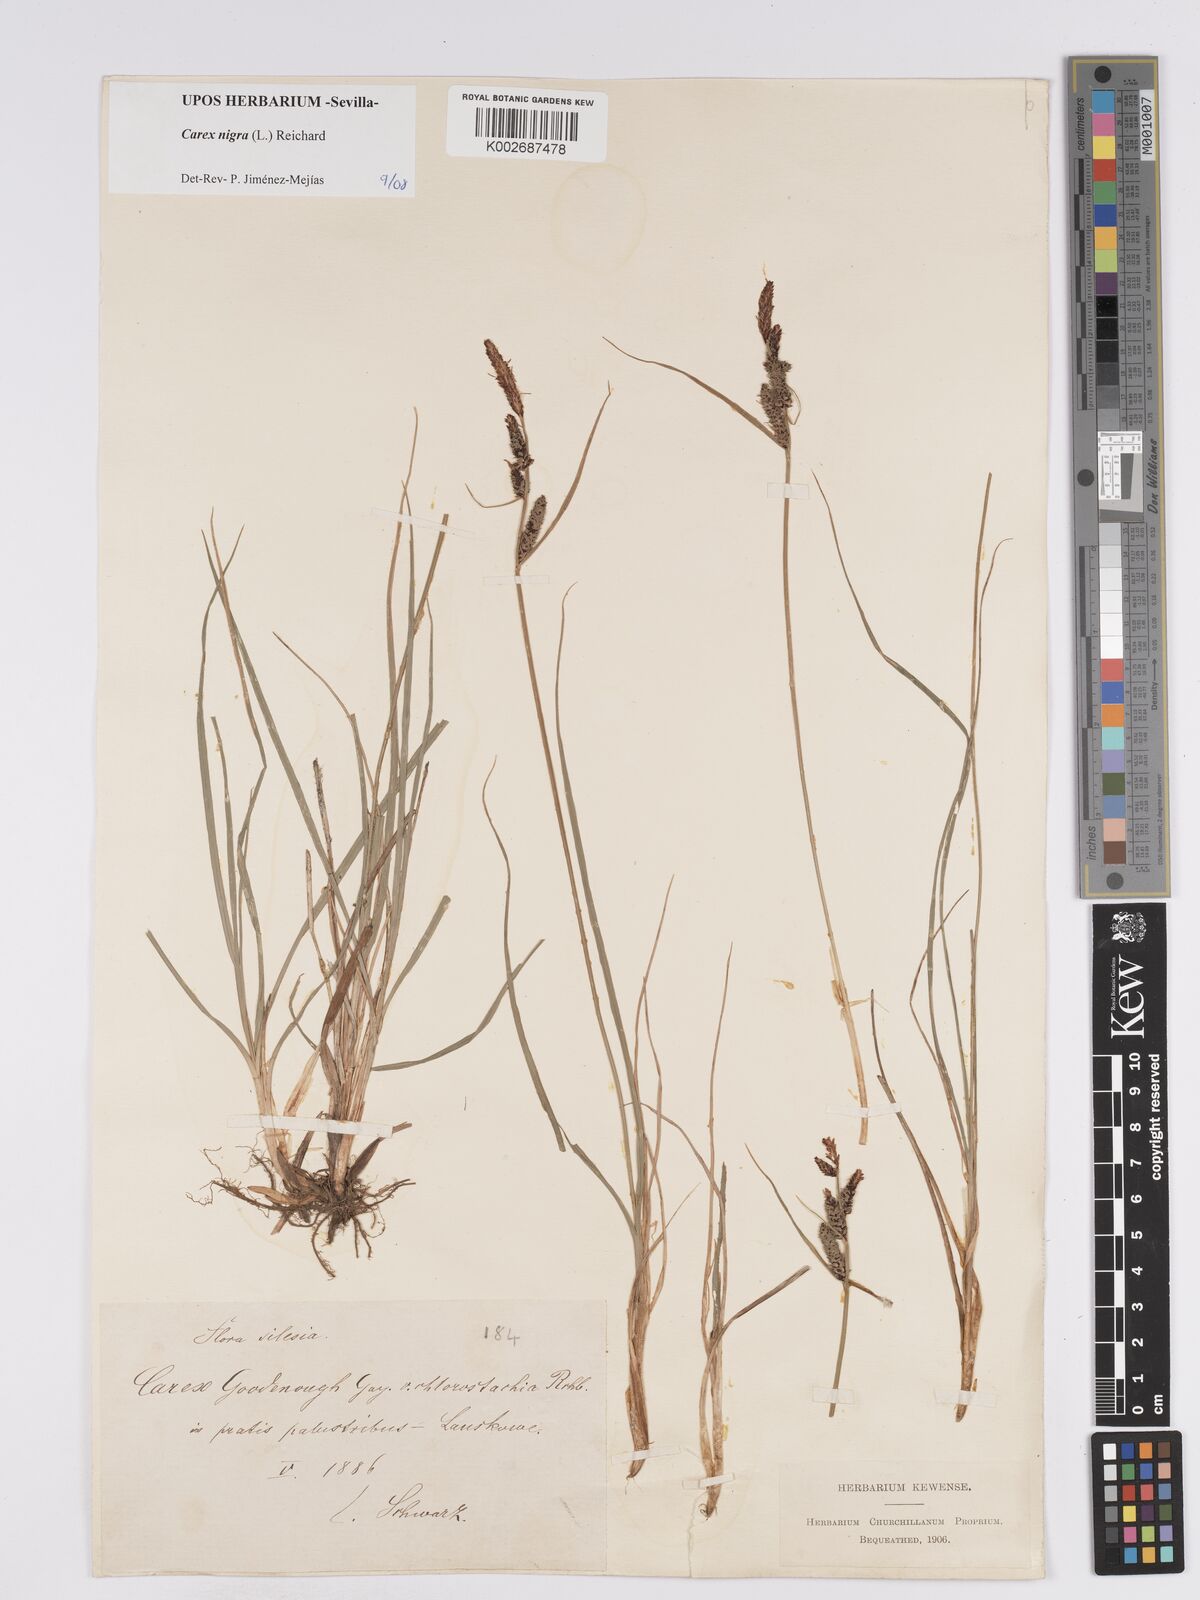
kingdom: Plantae
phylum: Tracheophyta
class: Liliopsida
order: Poales
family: Cyperaceae
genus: Carex
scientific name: Carex nigra
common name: Common sedge
